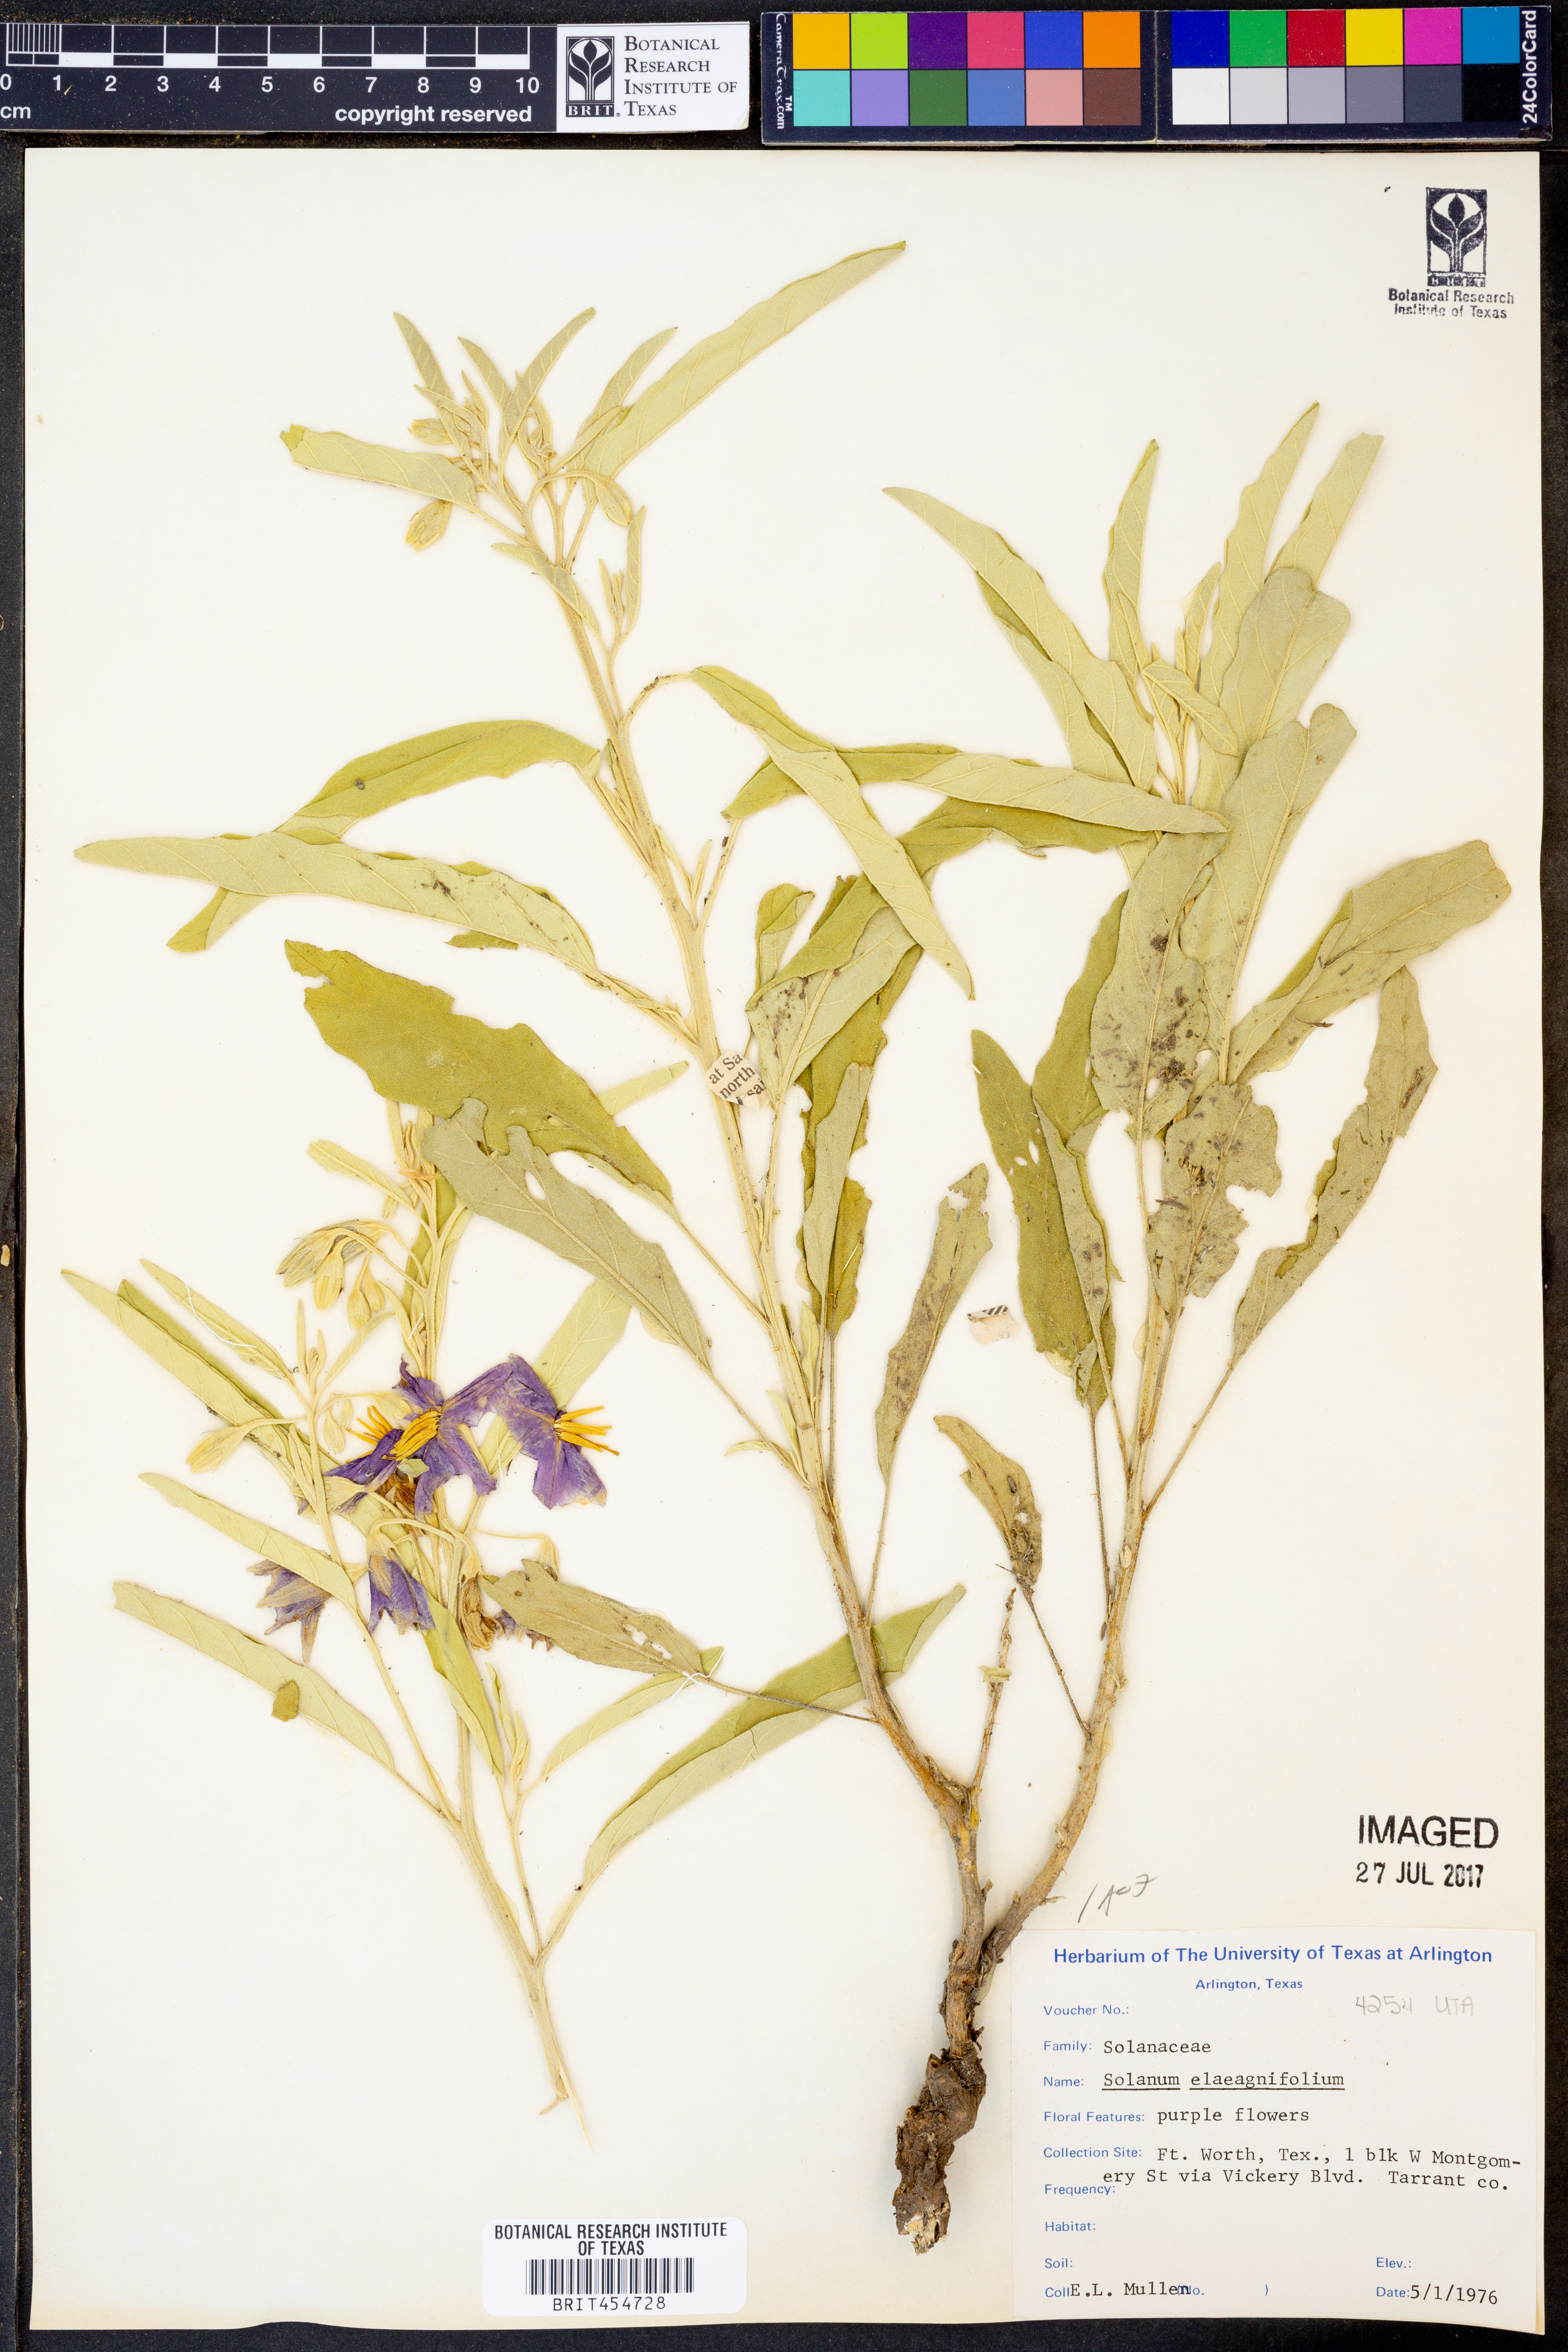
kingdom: Plantae
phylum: Tracheophyta
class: Magnoliopsida
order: Solanales
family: Solanaceae
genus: Solanum
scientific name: Solanum elaeagnifolium
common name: Silverleaf nightshade
